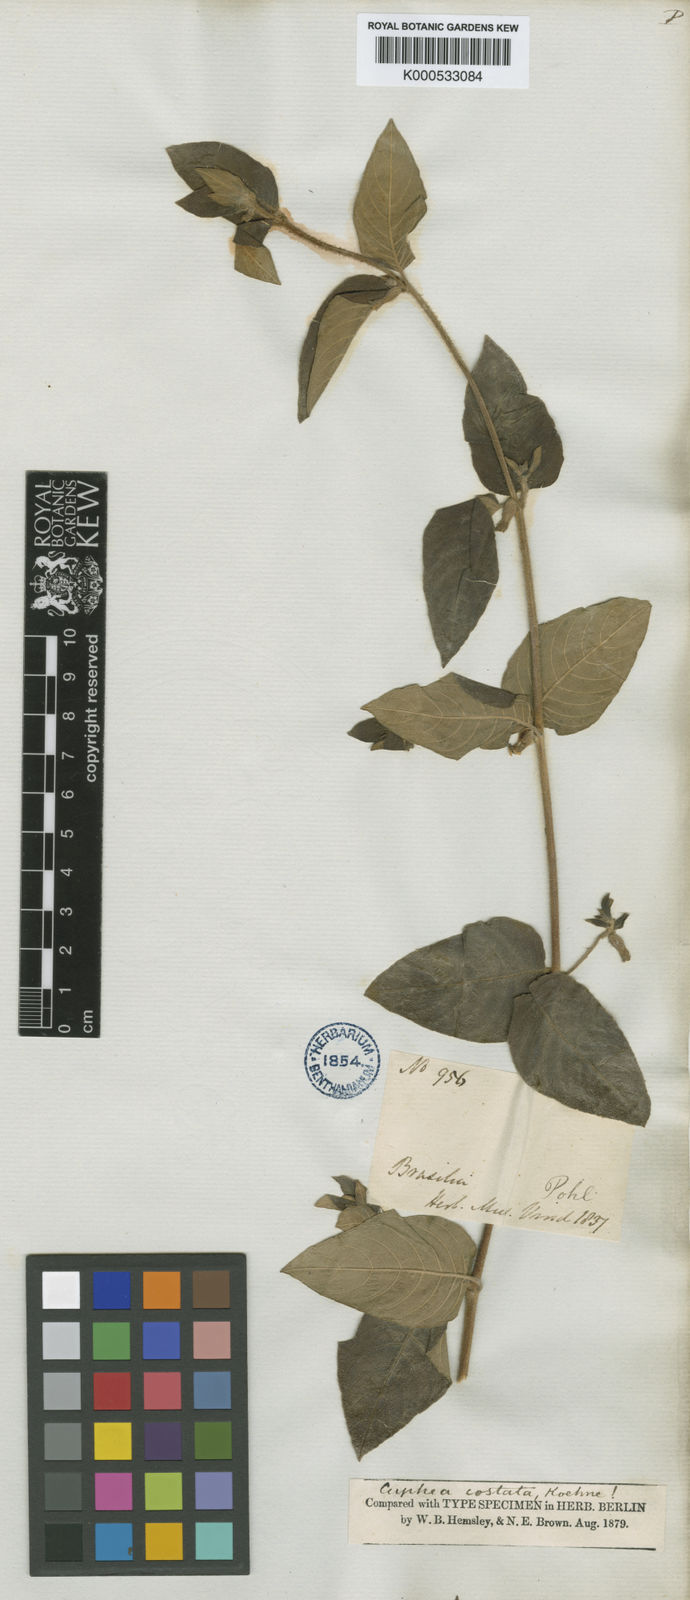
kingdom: Plantae
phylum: Tracheophyta
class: Magnoliopsida
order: Myrtales
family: Lythraceae
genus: Cuphea
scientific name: Cuphea sessiliflora
